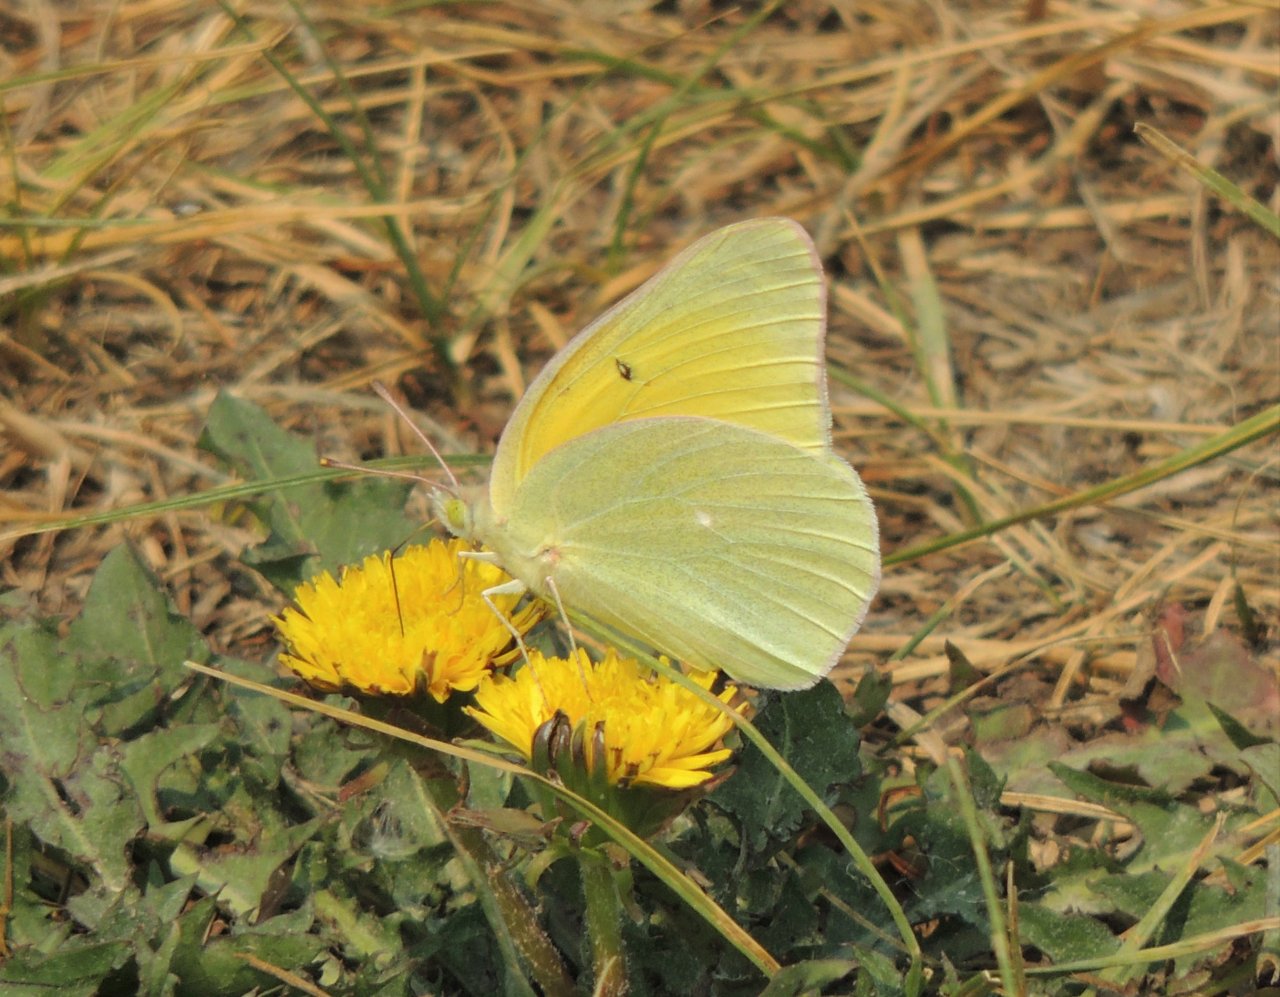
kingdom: Animalia
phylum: Arthropoda
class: Insecta
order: Lepidoptera
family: Pieridae
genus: Colias
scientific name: Colias alexandra
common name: Queen Alexandra's Sulphur
